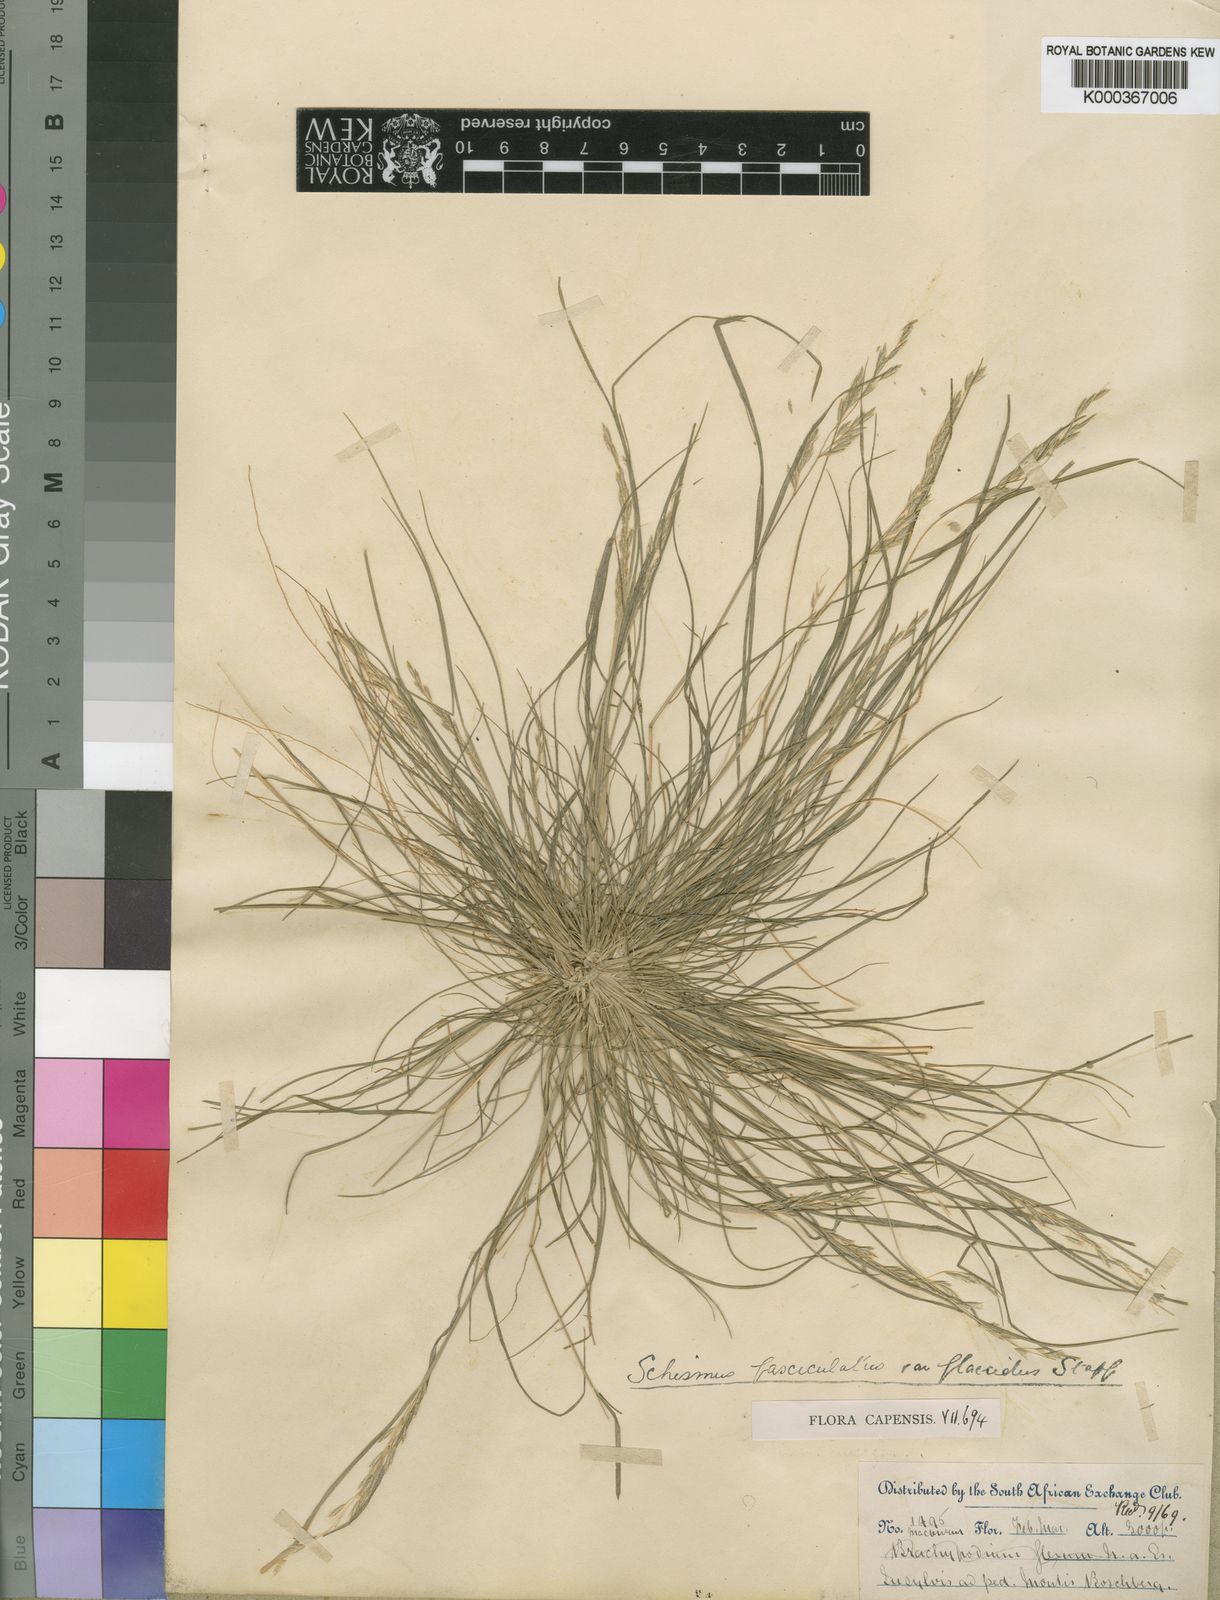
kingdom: Plantae
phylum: Tracheophyta
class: Liliopsida
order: Poales
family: Poaceae
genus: Schismus
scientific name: Schismus barbatus
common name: Kelch-grass
